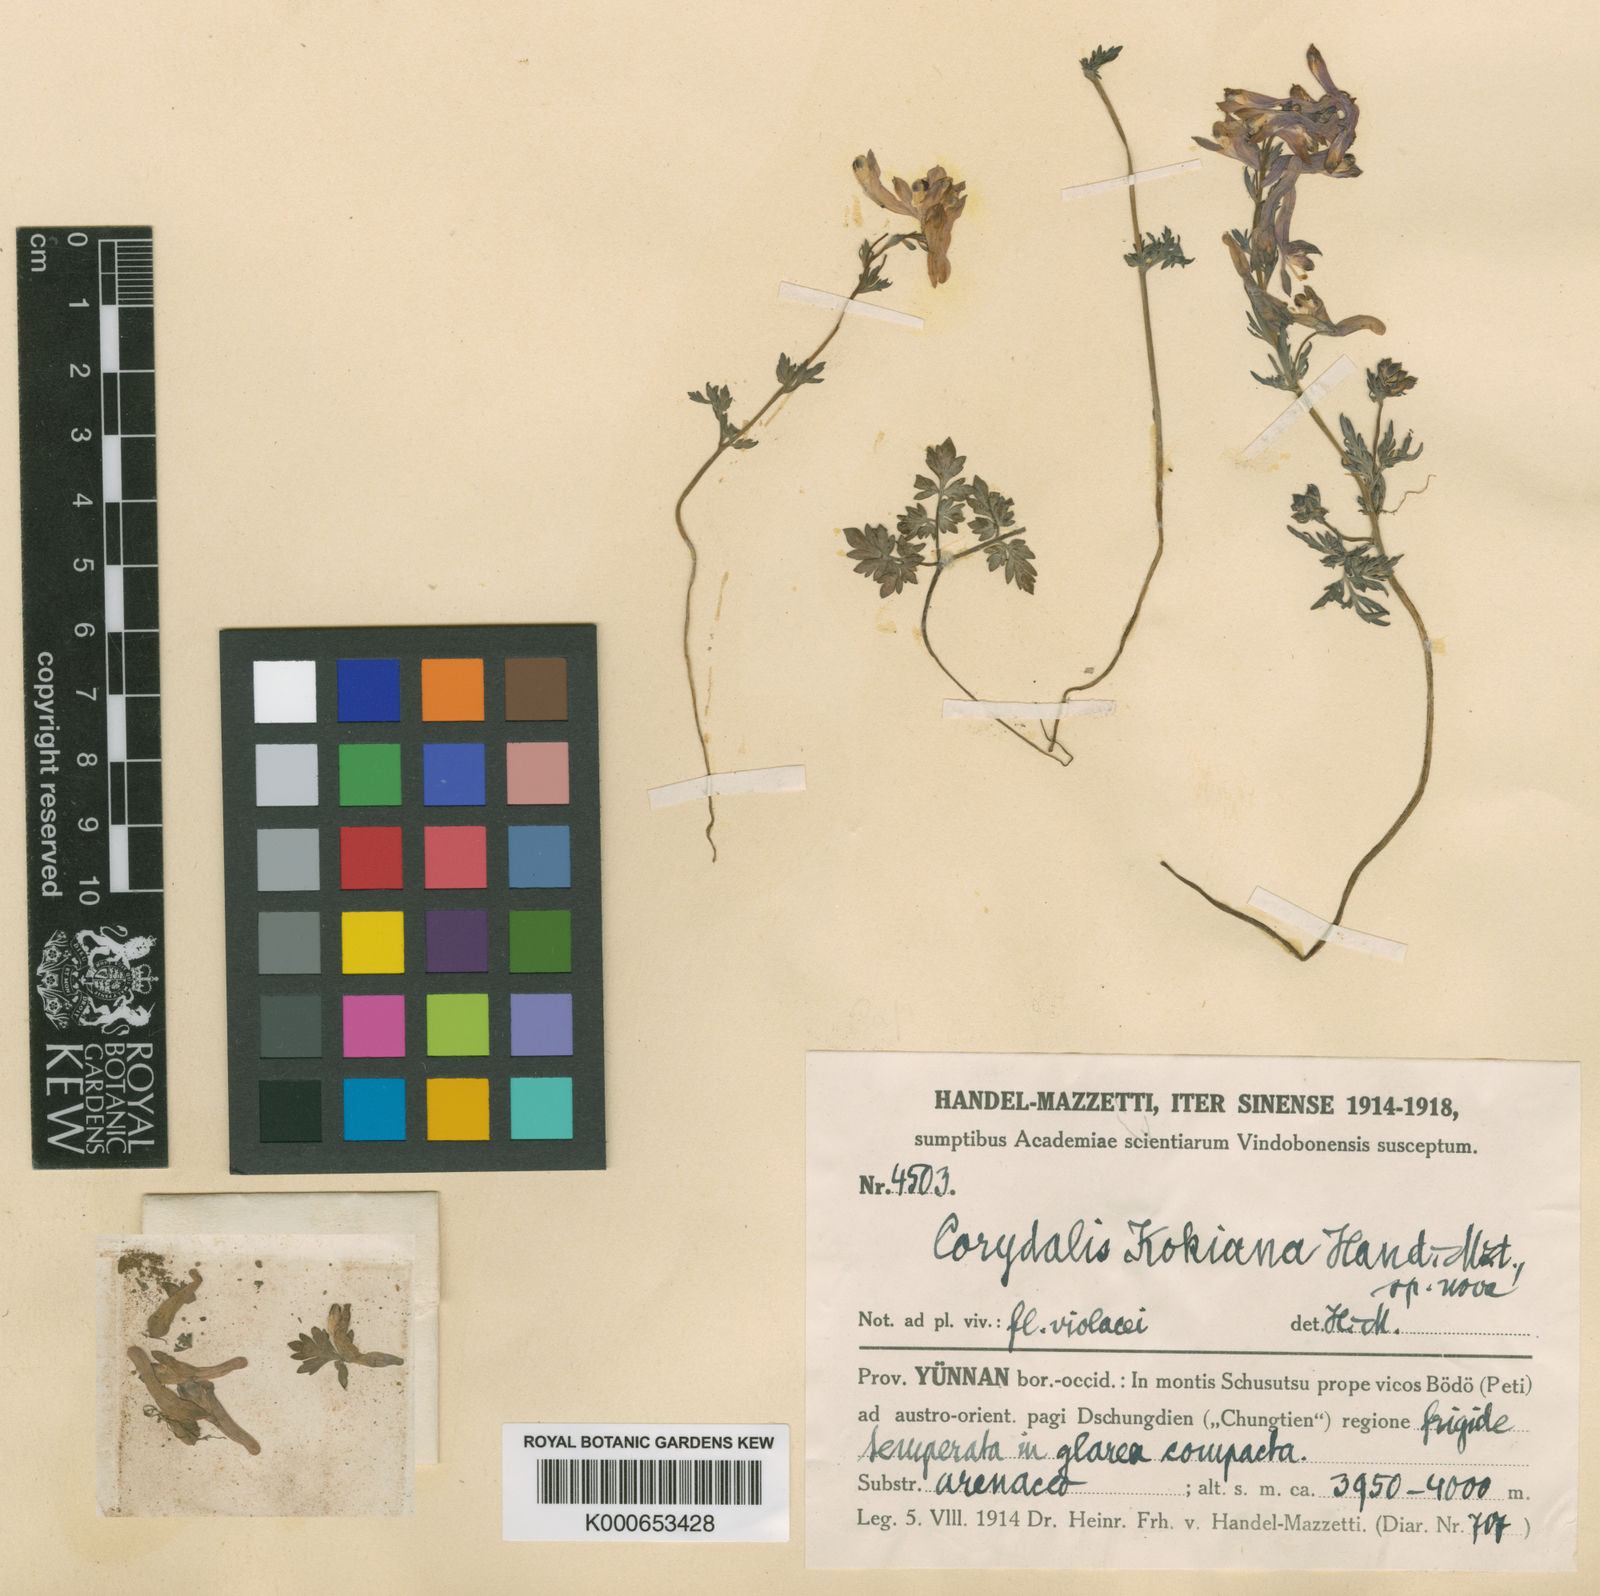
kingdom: Plantae
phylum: Tracheophyta
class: Magnoliopsida
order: Ranunculales
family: Papaveraceae
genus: Corydalis
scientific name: Corydalis kokiana
